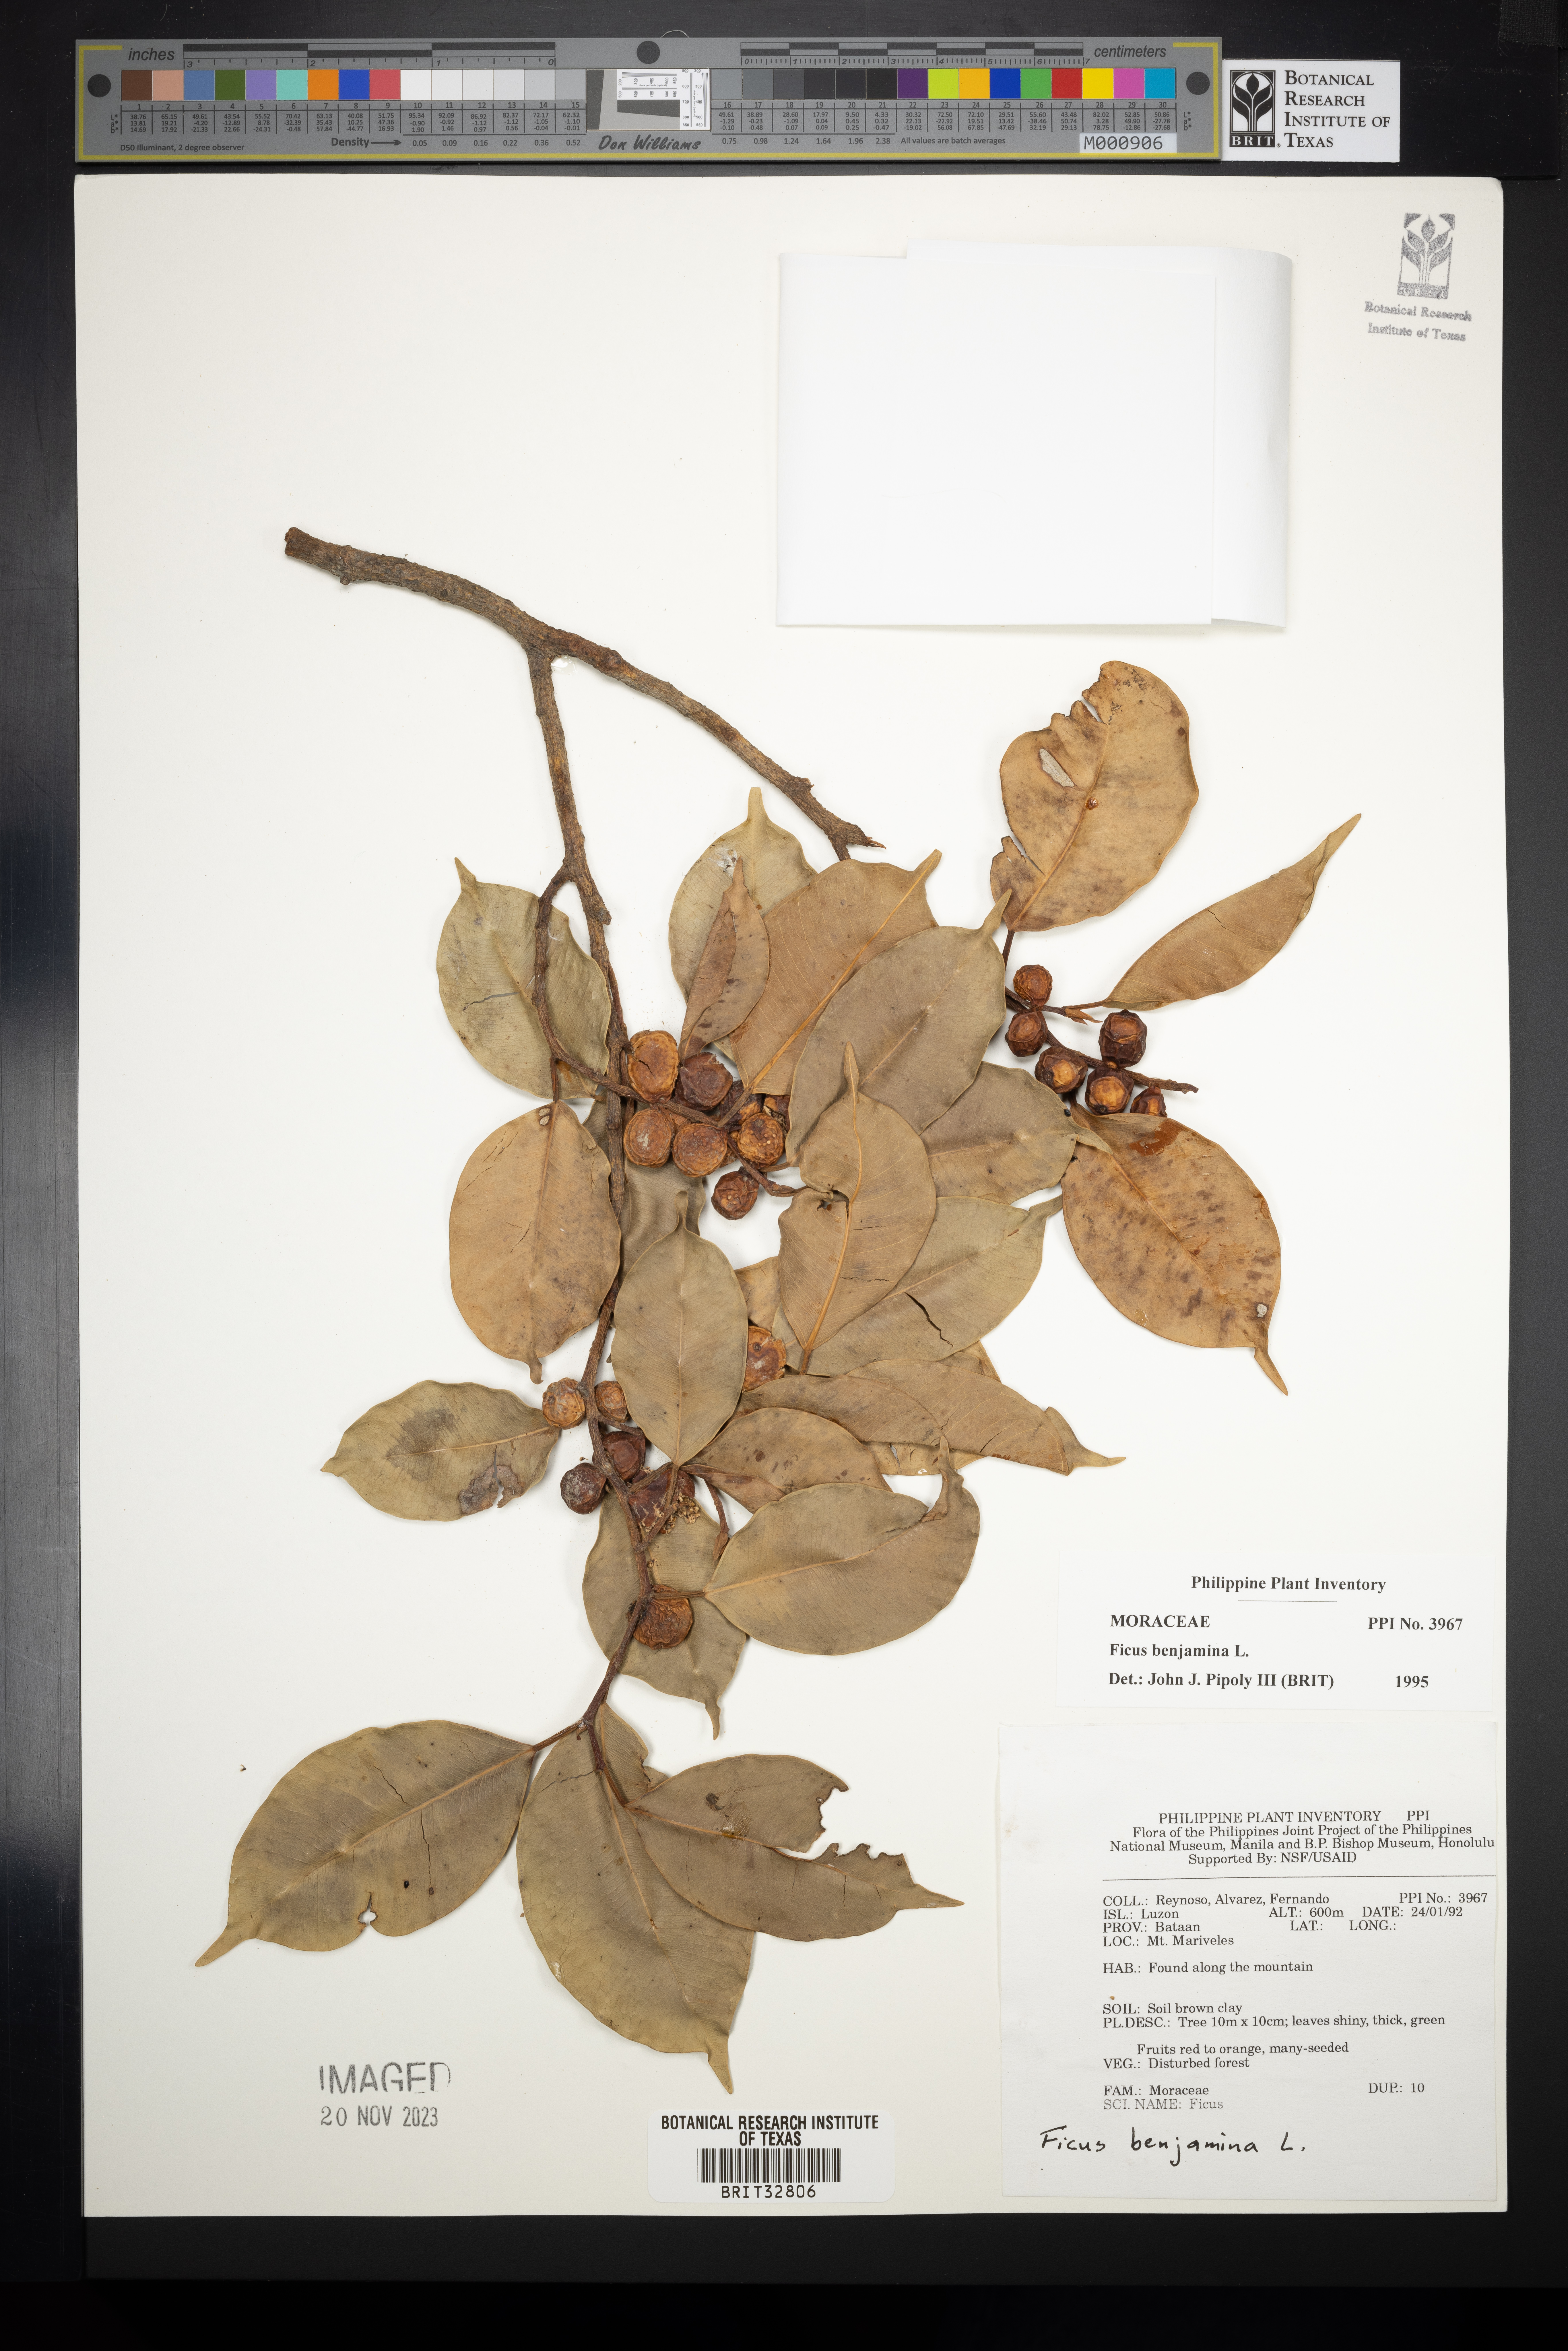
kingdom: Plantae
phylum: Tracheophyta
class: Magnoliopsida
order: Rosales
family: Moraceae
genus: Ficus
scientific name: Ficus benjamina
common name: Weeping fig
